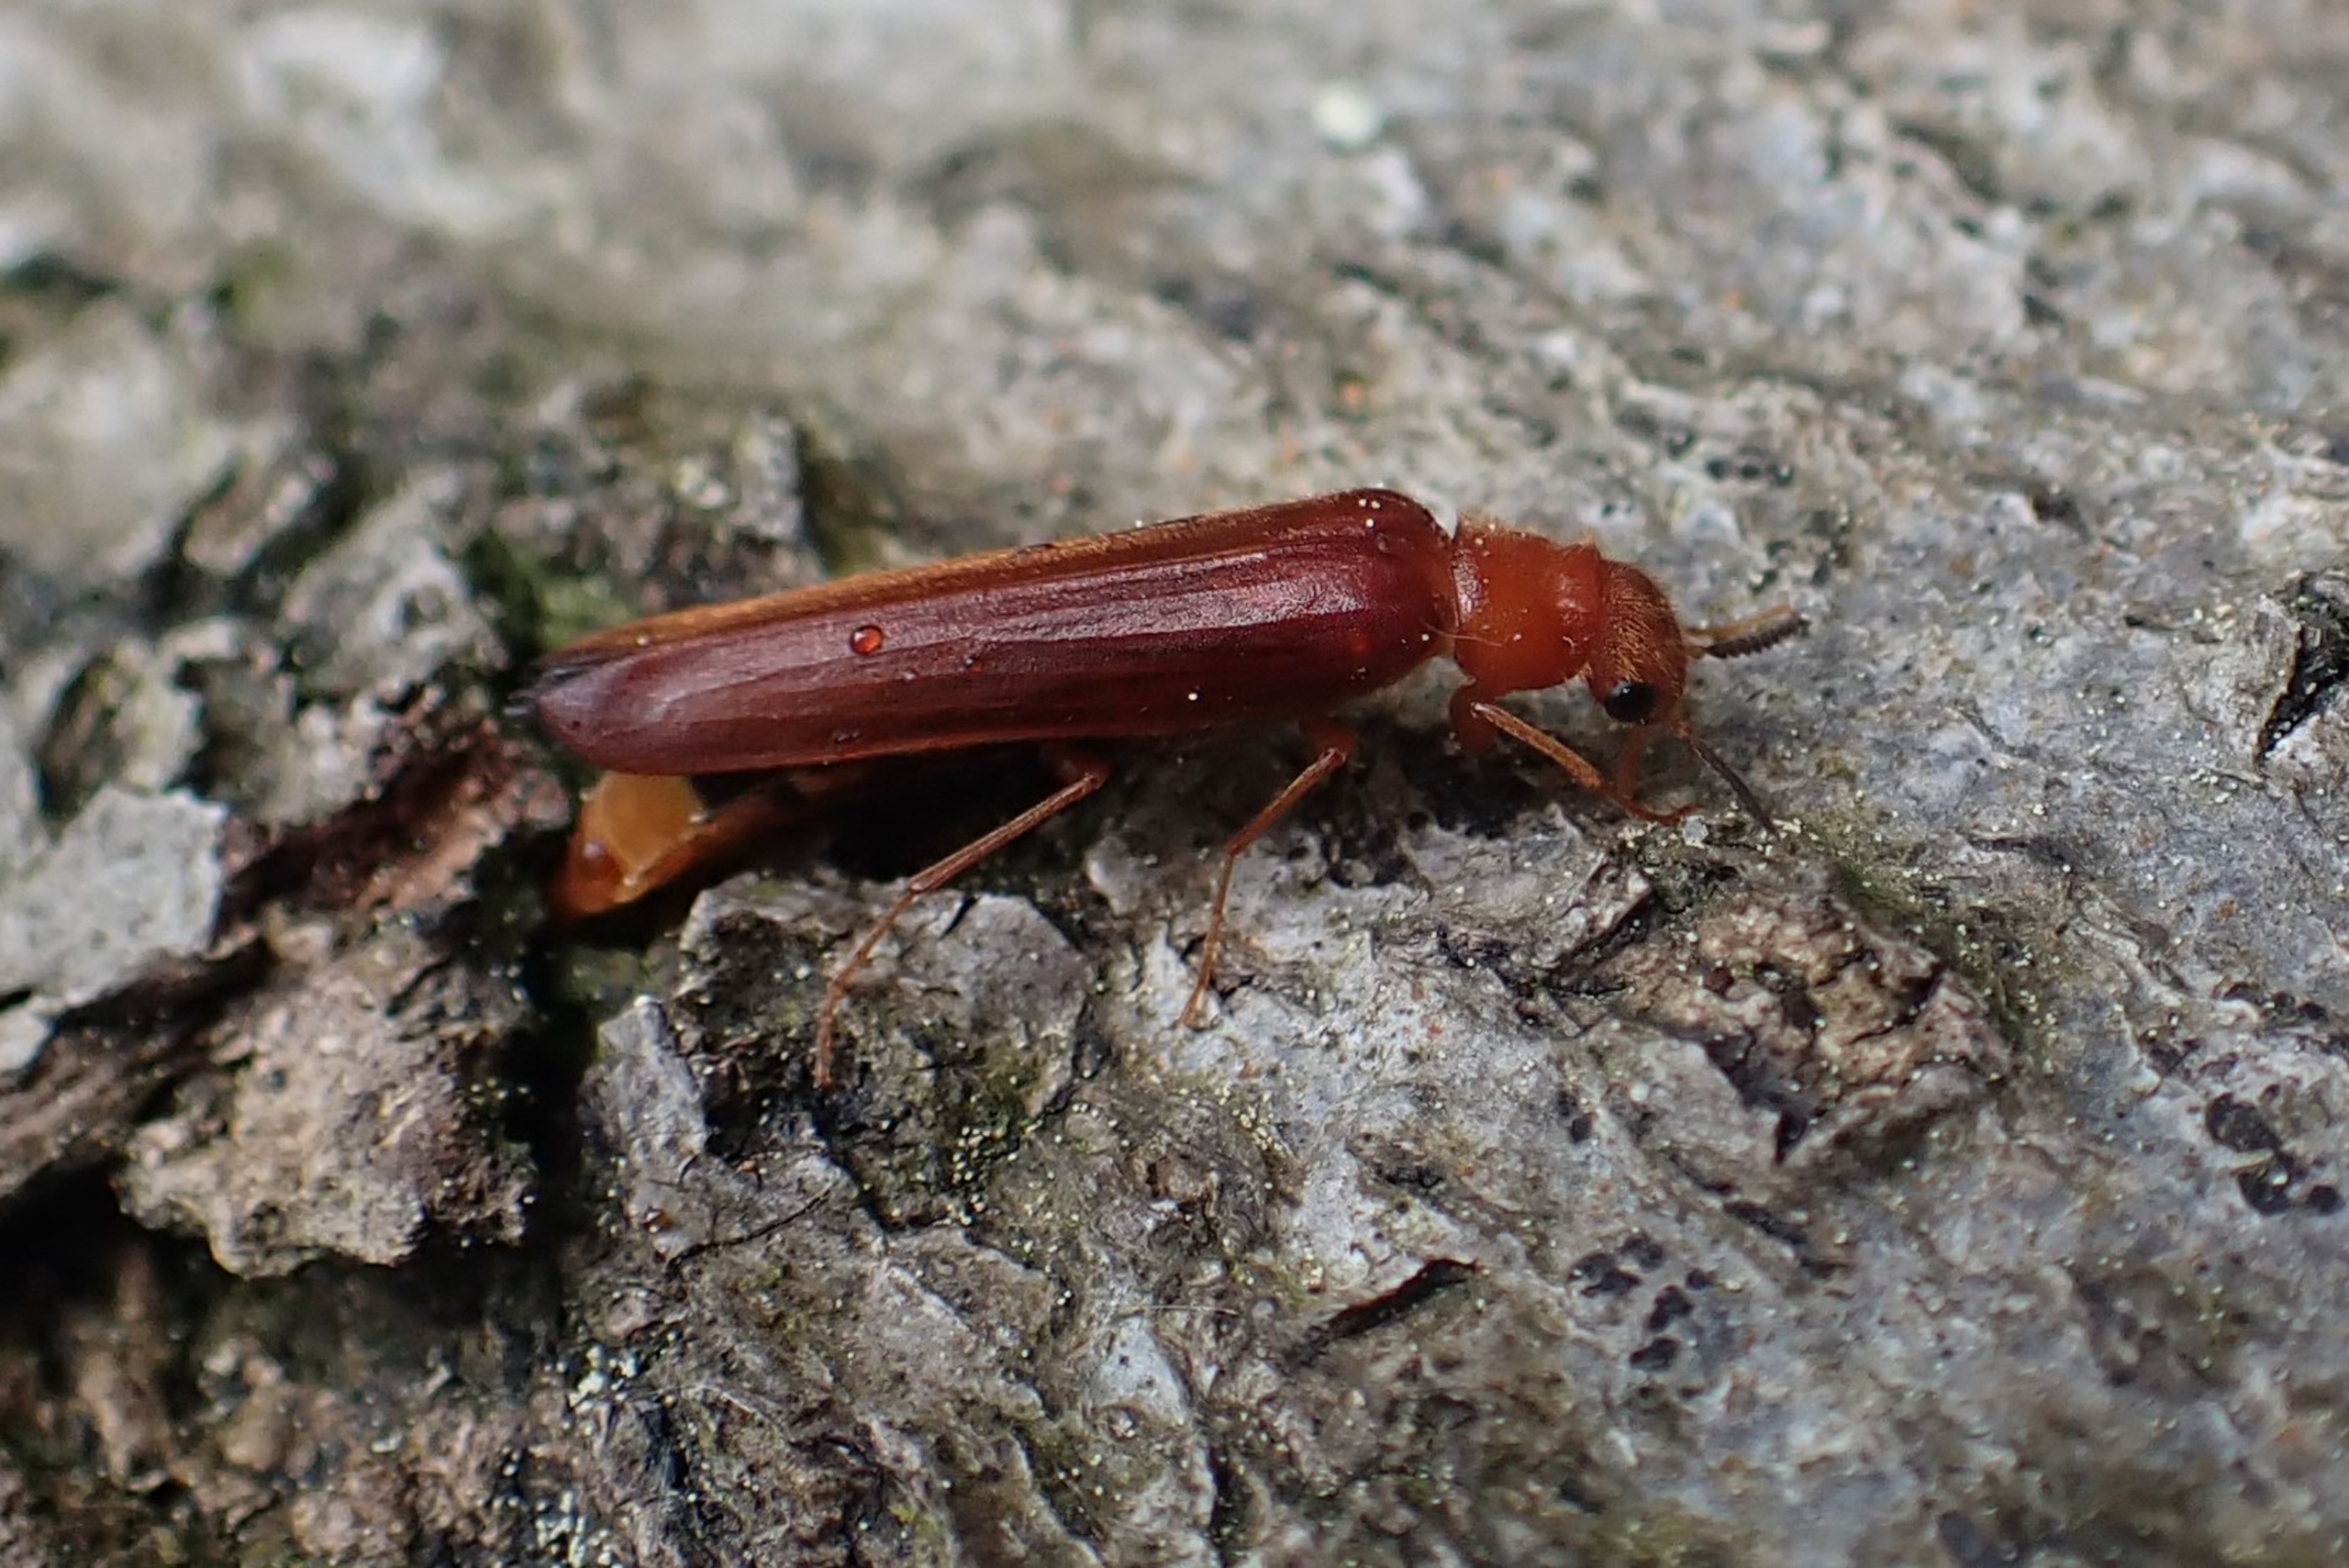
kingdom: Animalia
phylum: Arthropoda
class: Insecta
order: Coleoptera
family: Lymexylidae
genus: Hylecoetus
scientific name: Hylecoetus dermestoides
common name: Almindelig værftbille
